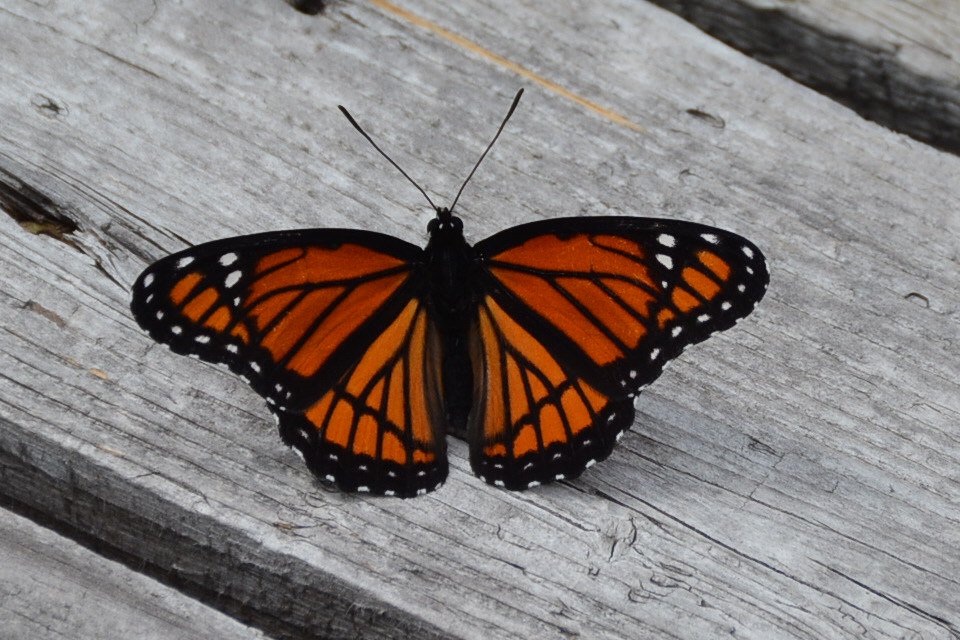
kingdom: Animalia
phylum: Arthropoda
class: Insecta
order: Lepidoptera
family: Nymphalidae
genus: Limenitis
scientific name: Limenitis archippus
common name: Viceroy
